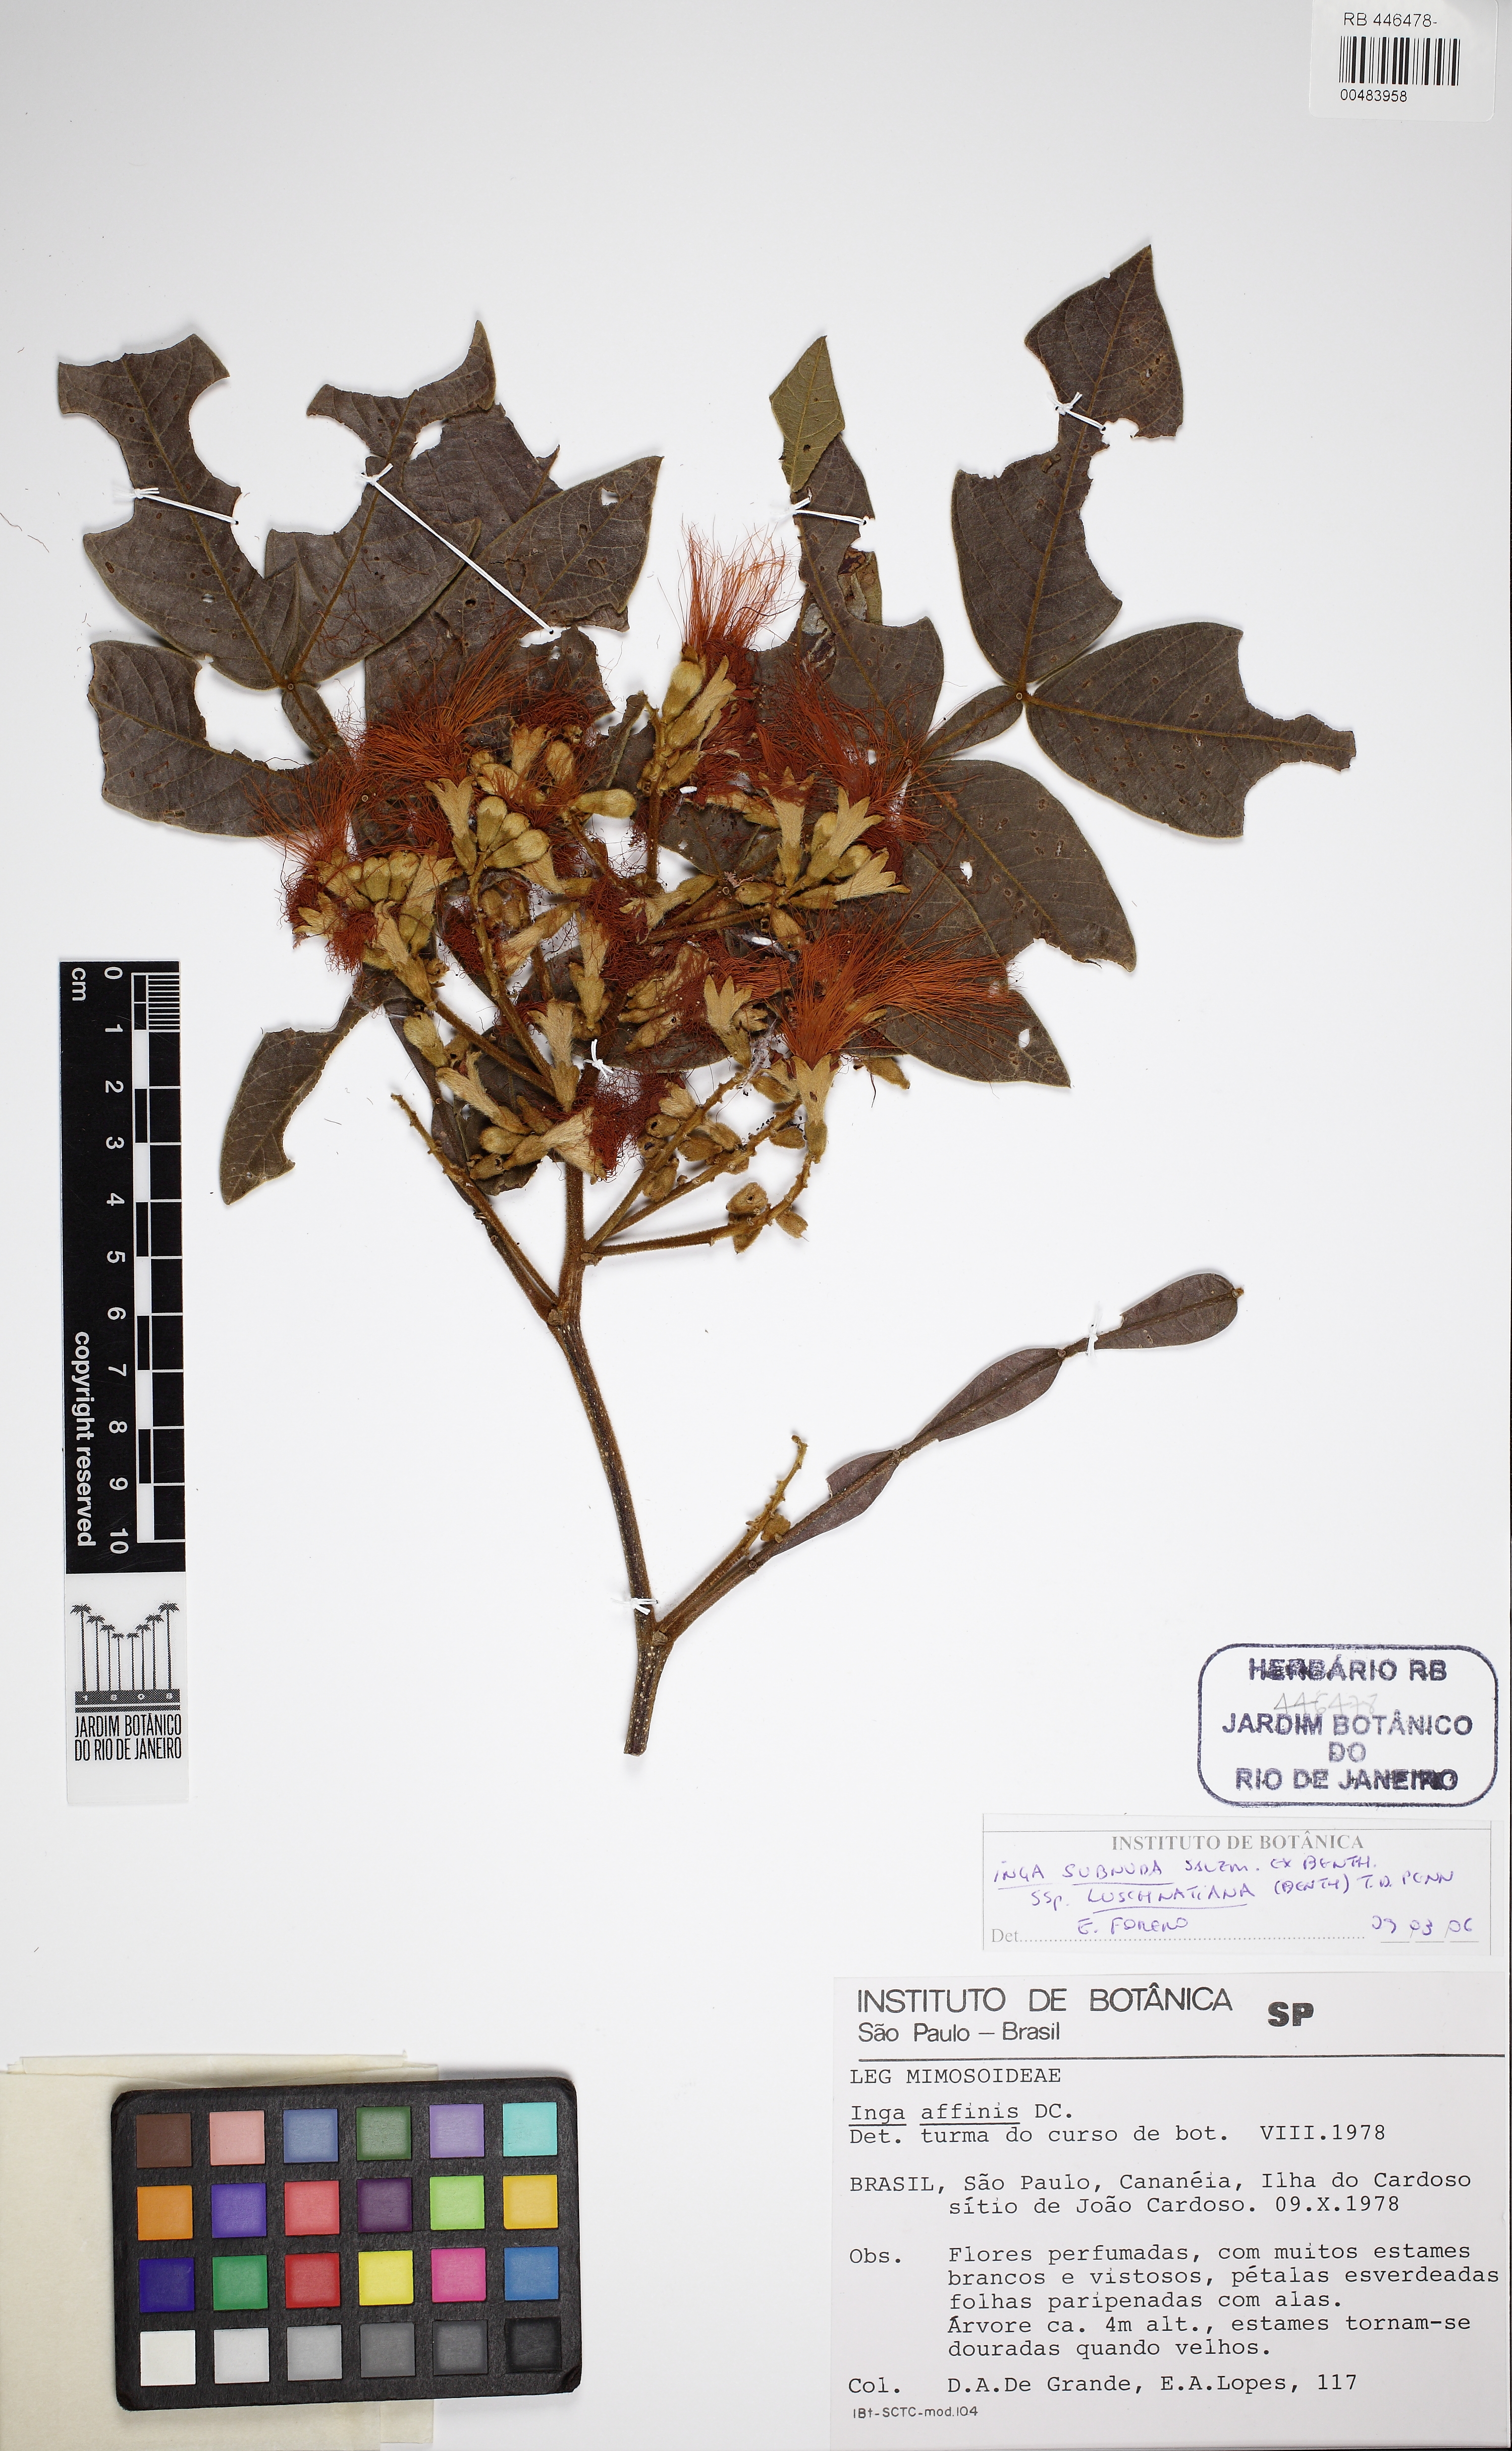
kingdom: Plantae
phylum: Tracheophyta
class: Magnoliopsida
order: Fabales
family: Fabaceae
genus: Inga
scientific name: Inga subnuda
